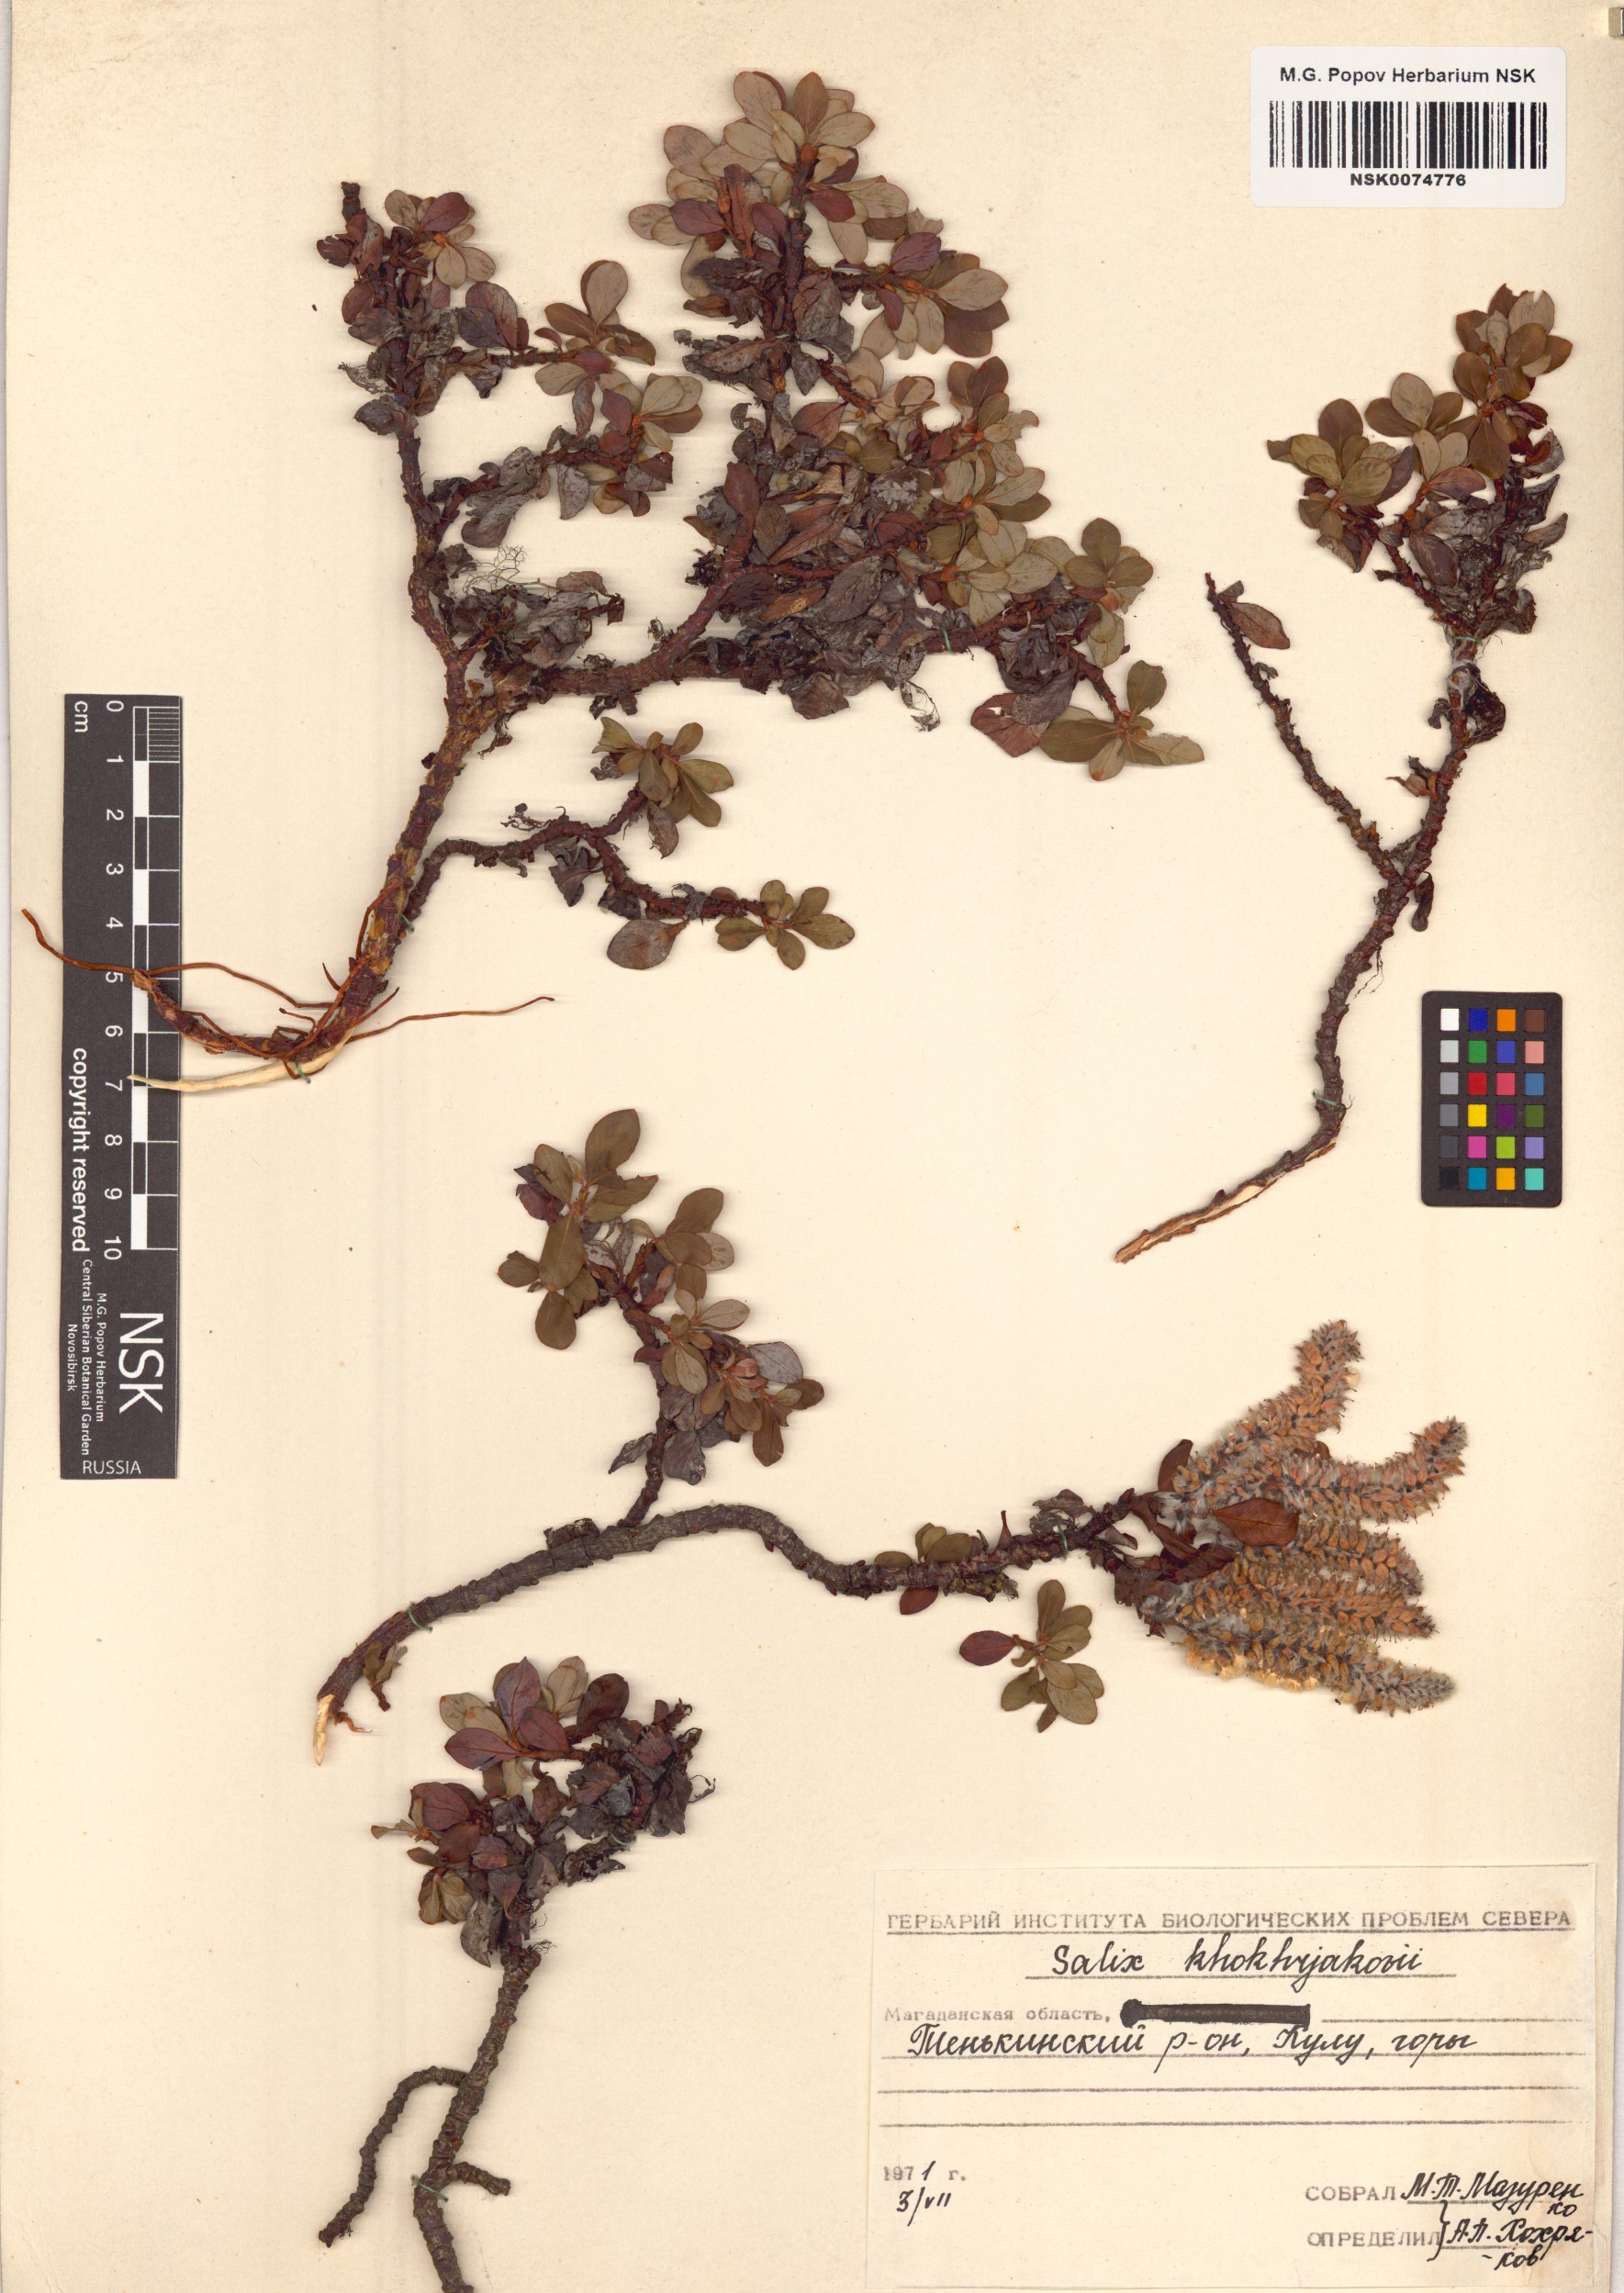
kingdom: Plantae
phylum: Tracheophyta
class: Magnoliopsida
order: Malpighiales
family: Salicaceae
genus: Salix
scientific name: Salix khokhriakovii
